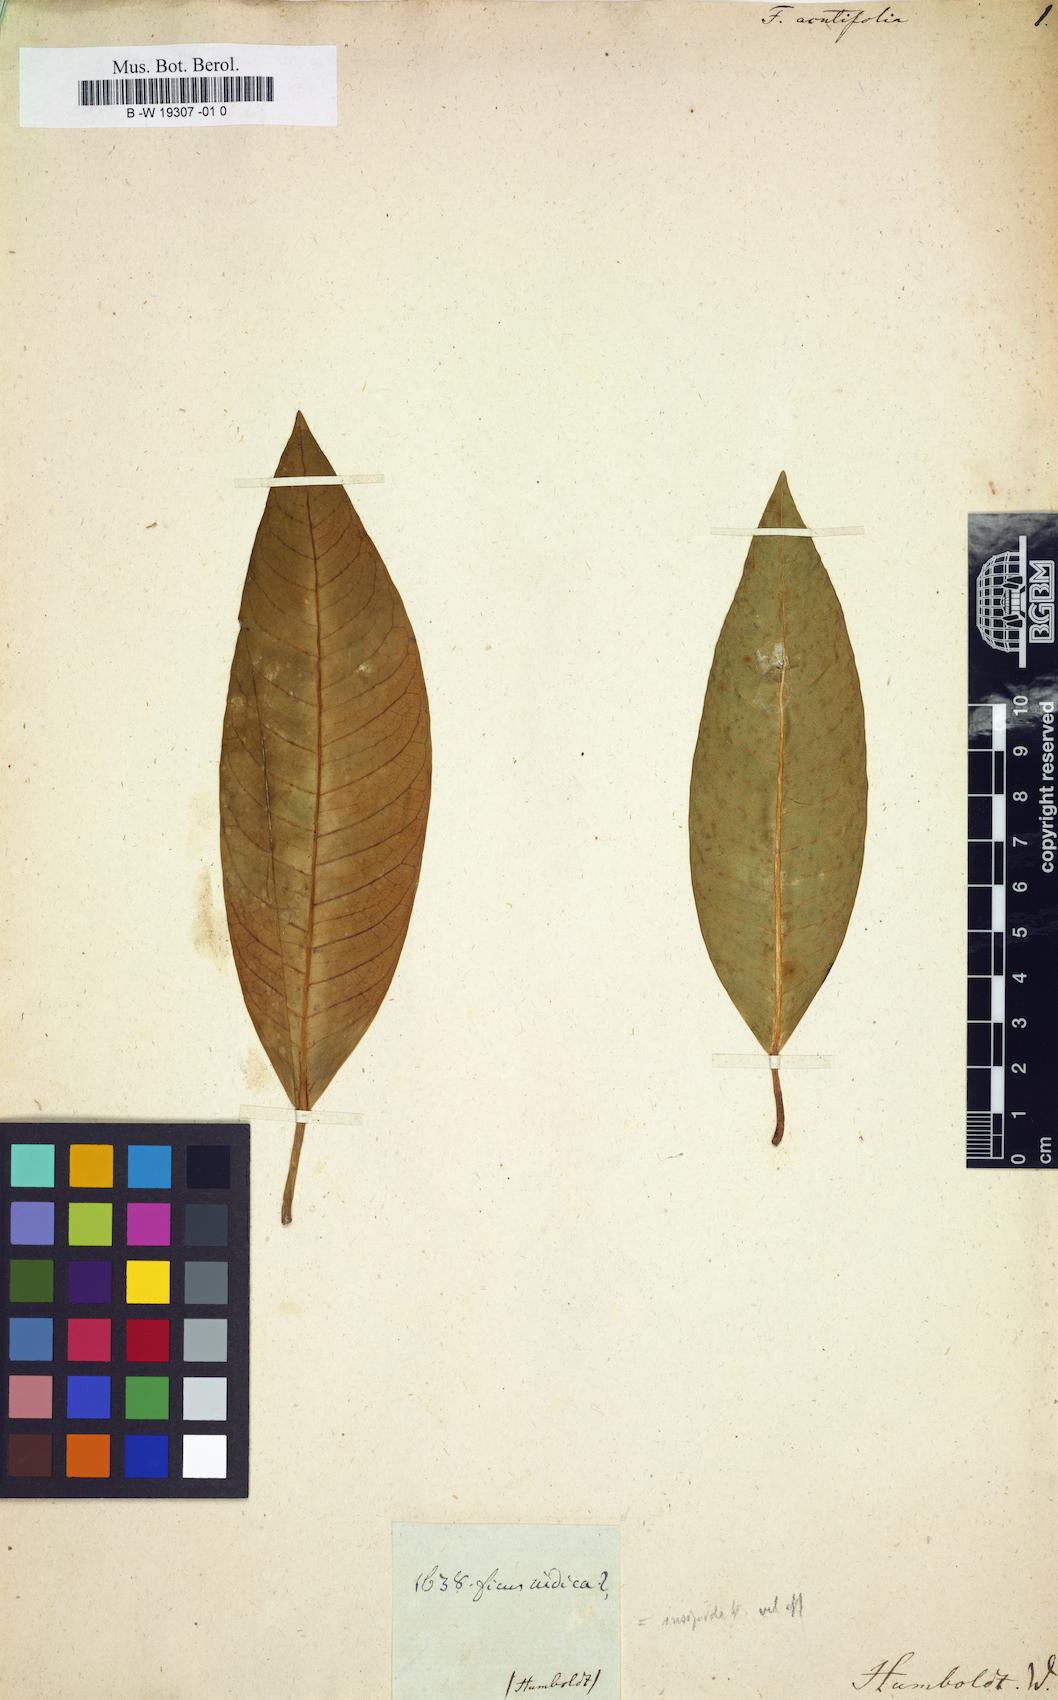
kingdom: Plantae
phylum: Tracheophyta
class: Magnoliopsida
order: Rosales
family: Moraceae
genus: Ficus
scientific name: Ficus asperifolia
